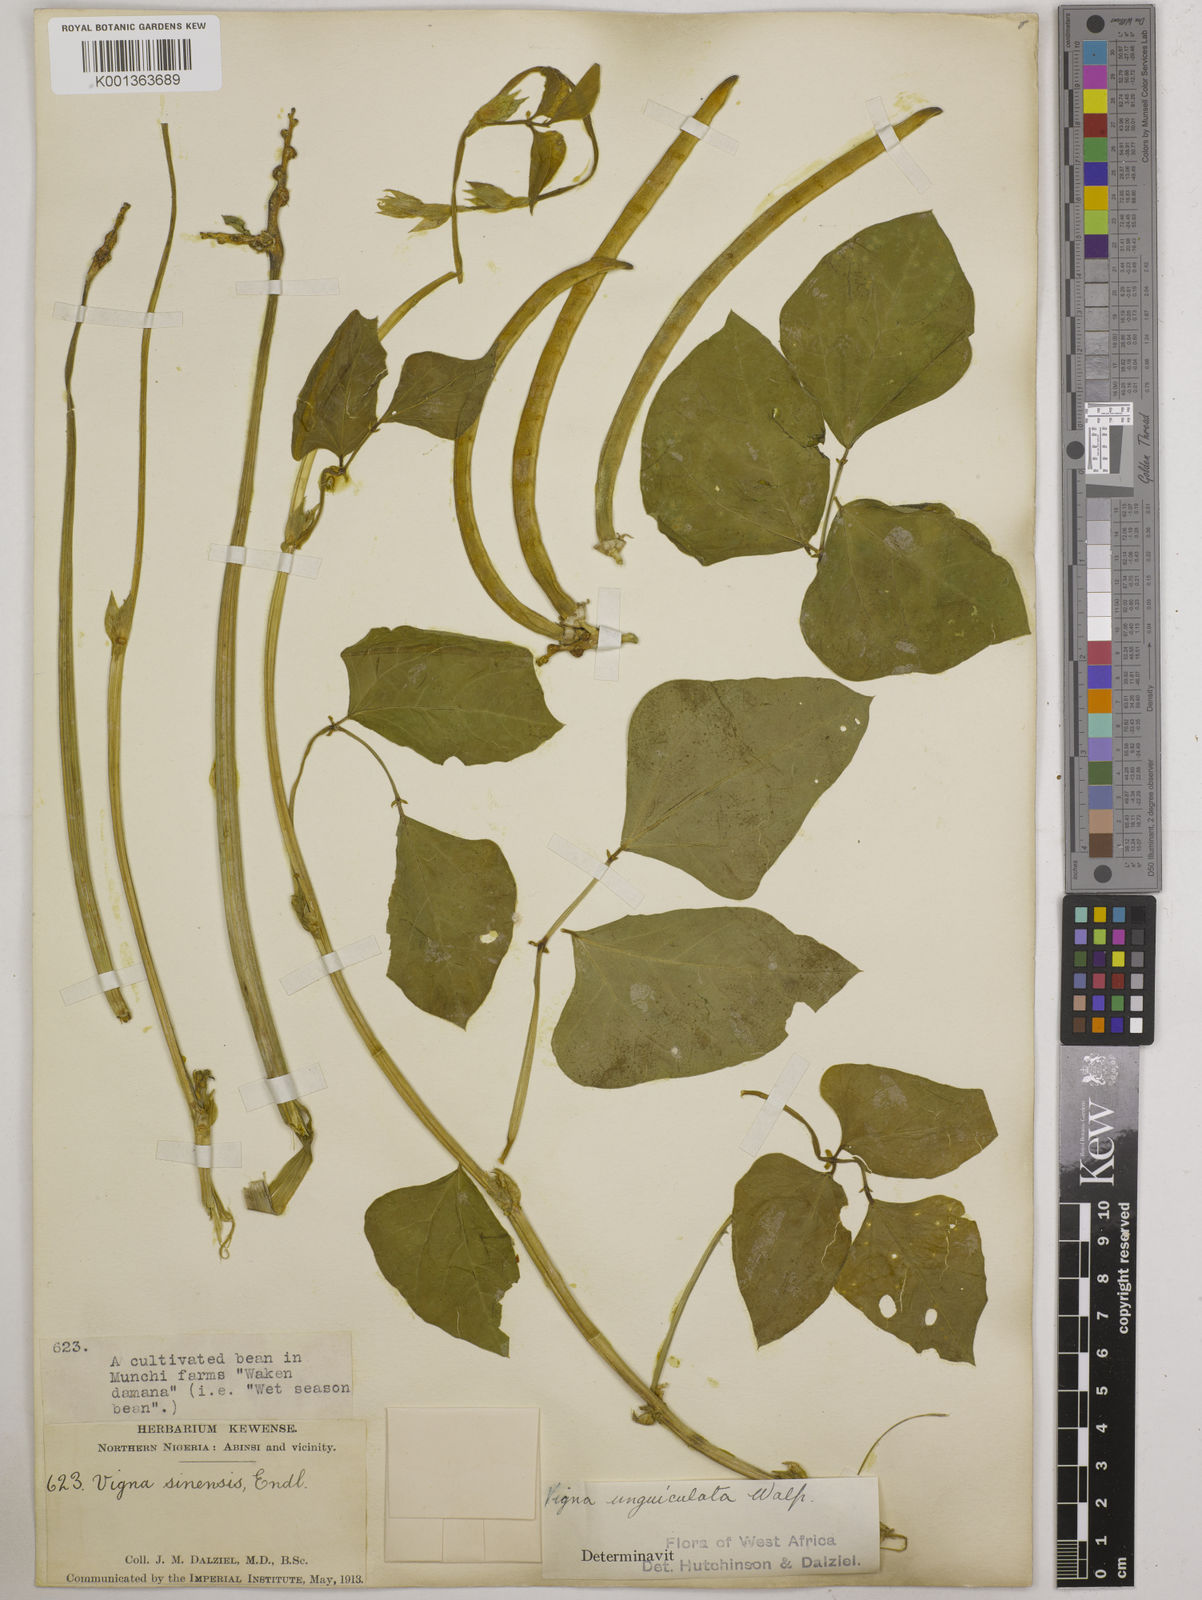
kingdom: Plantae
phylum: Tracheophyta
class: Magnoliopsida
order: Fabales
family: Fabaceae
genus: Vigna
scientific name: Vigna unguiculata
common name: Cowpea
